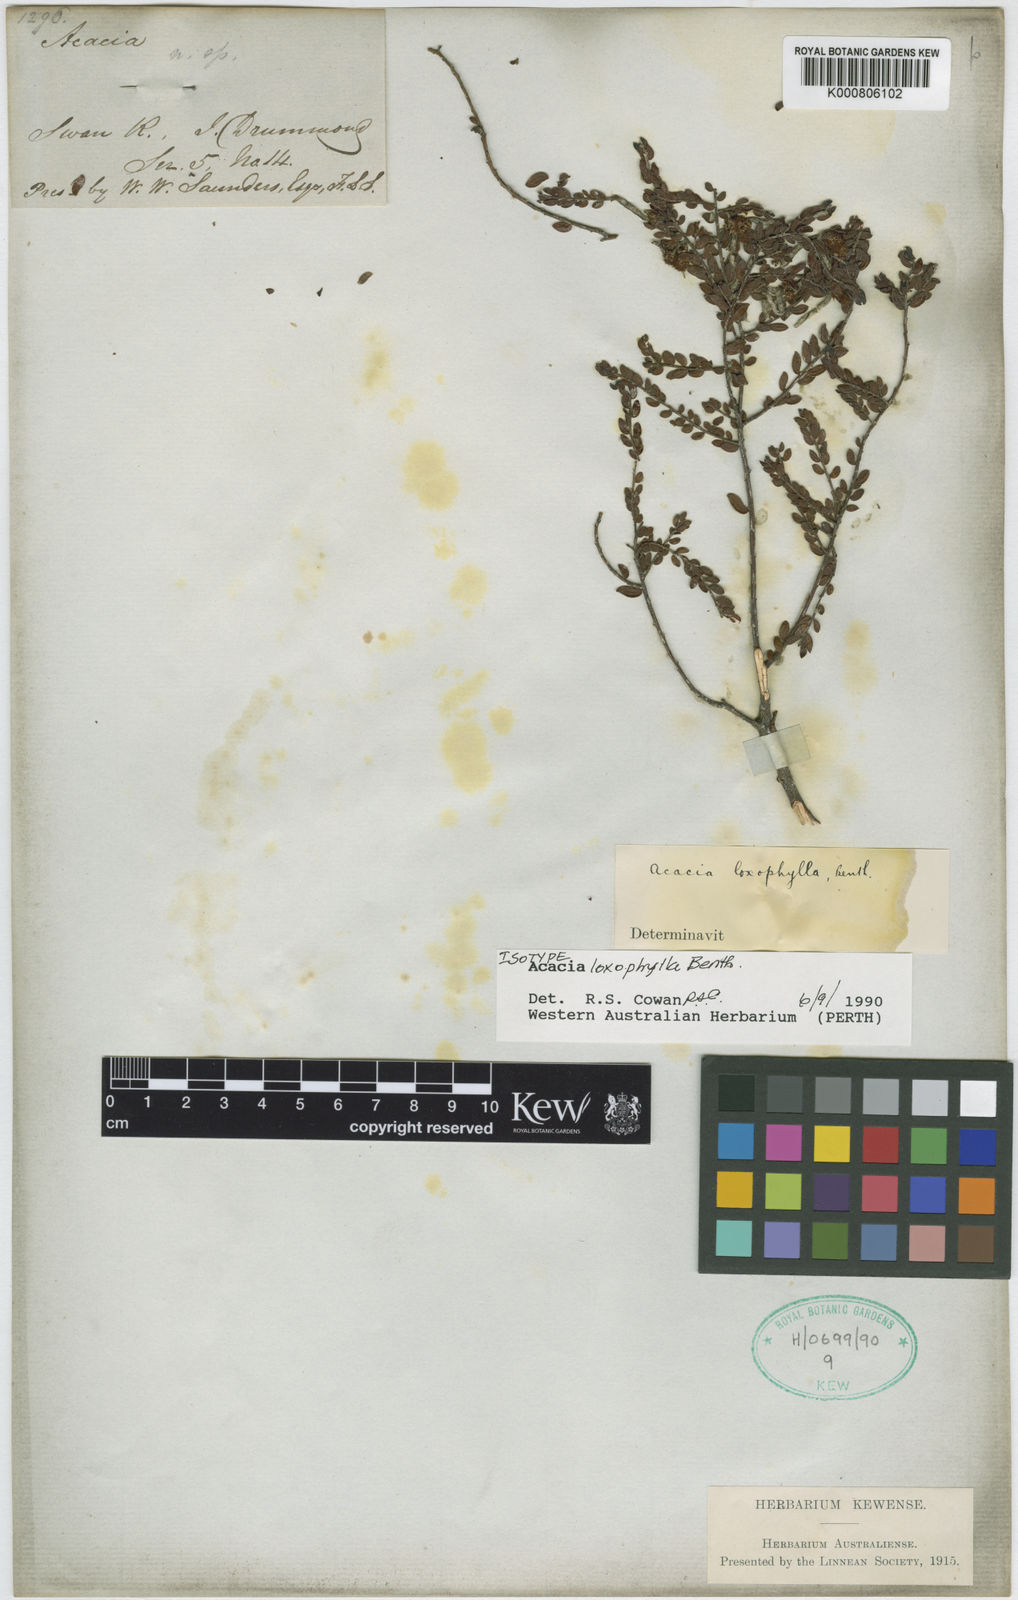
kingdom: Plantae
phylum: Tracheophyta
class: Magnoliopsida
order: Fabales
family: Fabaceae
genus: Acacia
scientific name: Acacia loxophylla
